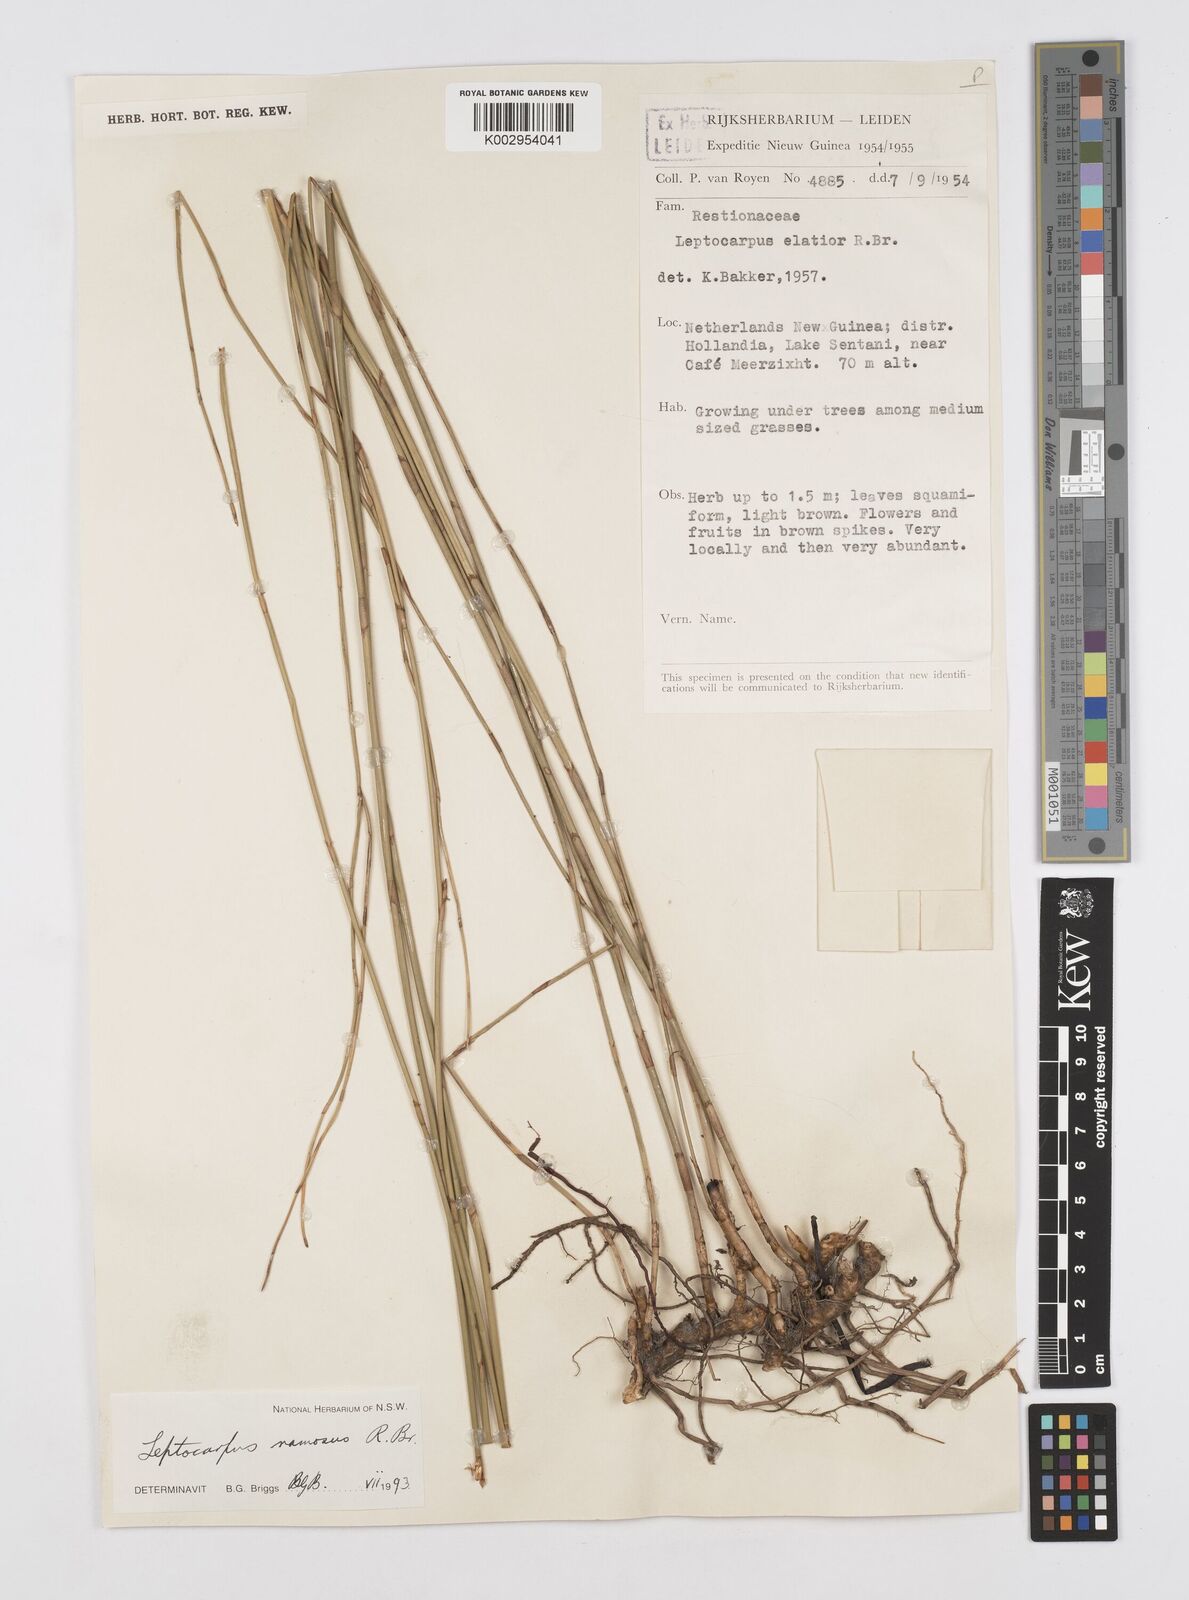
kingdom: Plantae
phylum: Tracheophyta
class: Liliopsida
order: Poales
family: Restionaceae
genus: Dapsilanthus
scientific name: Dapsilanthus ramosus
